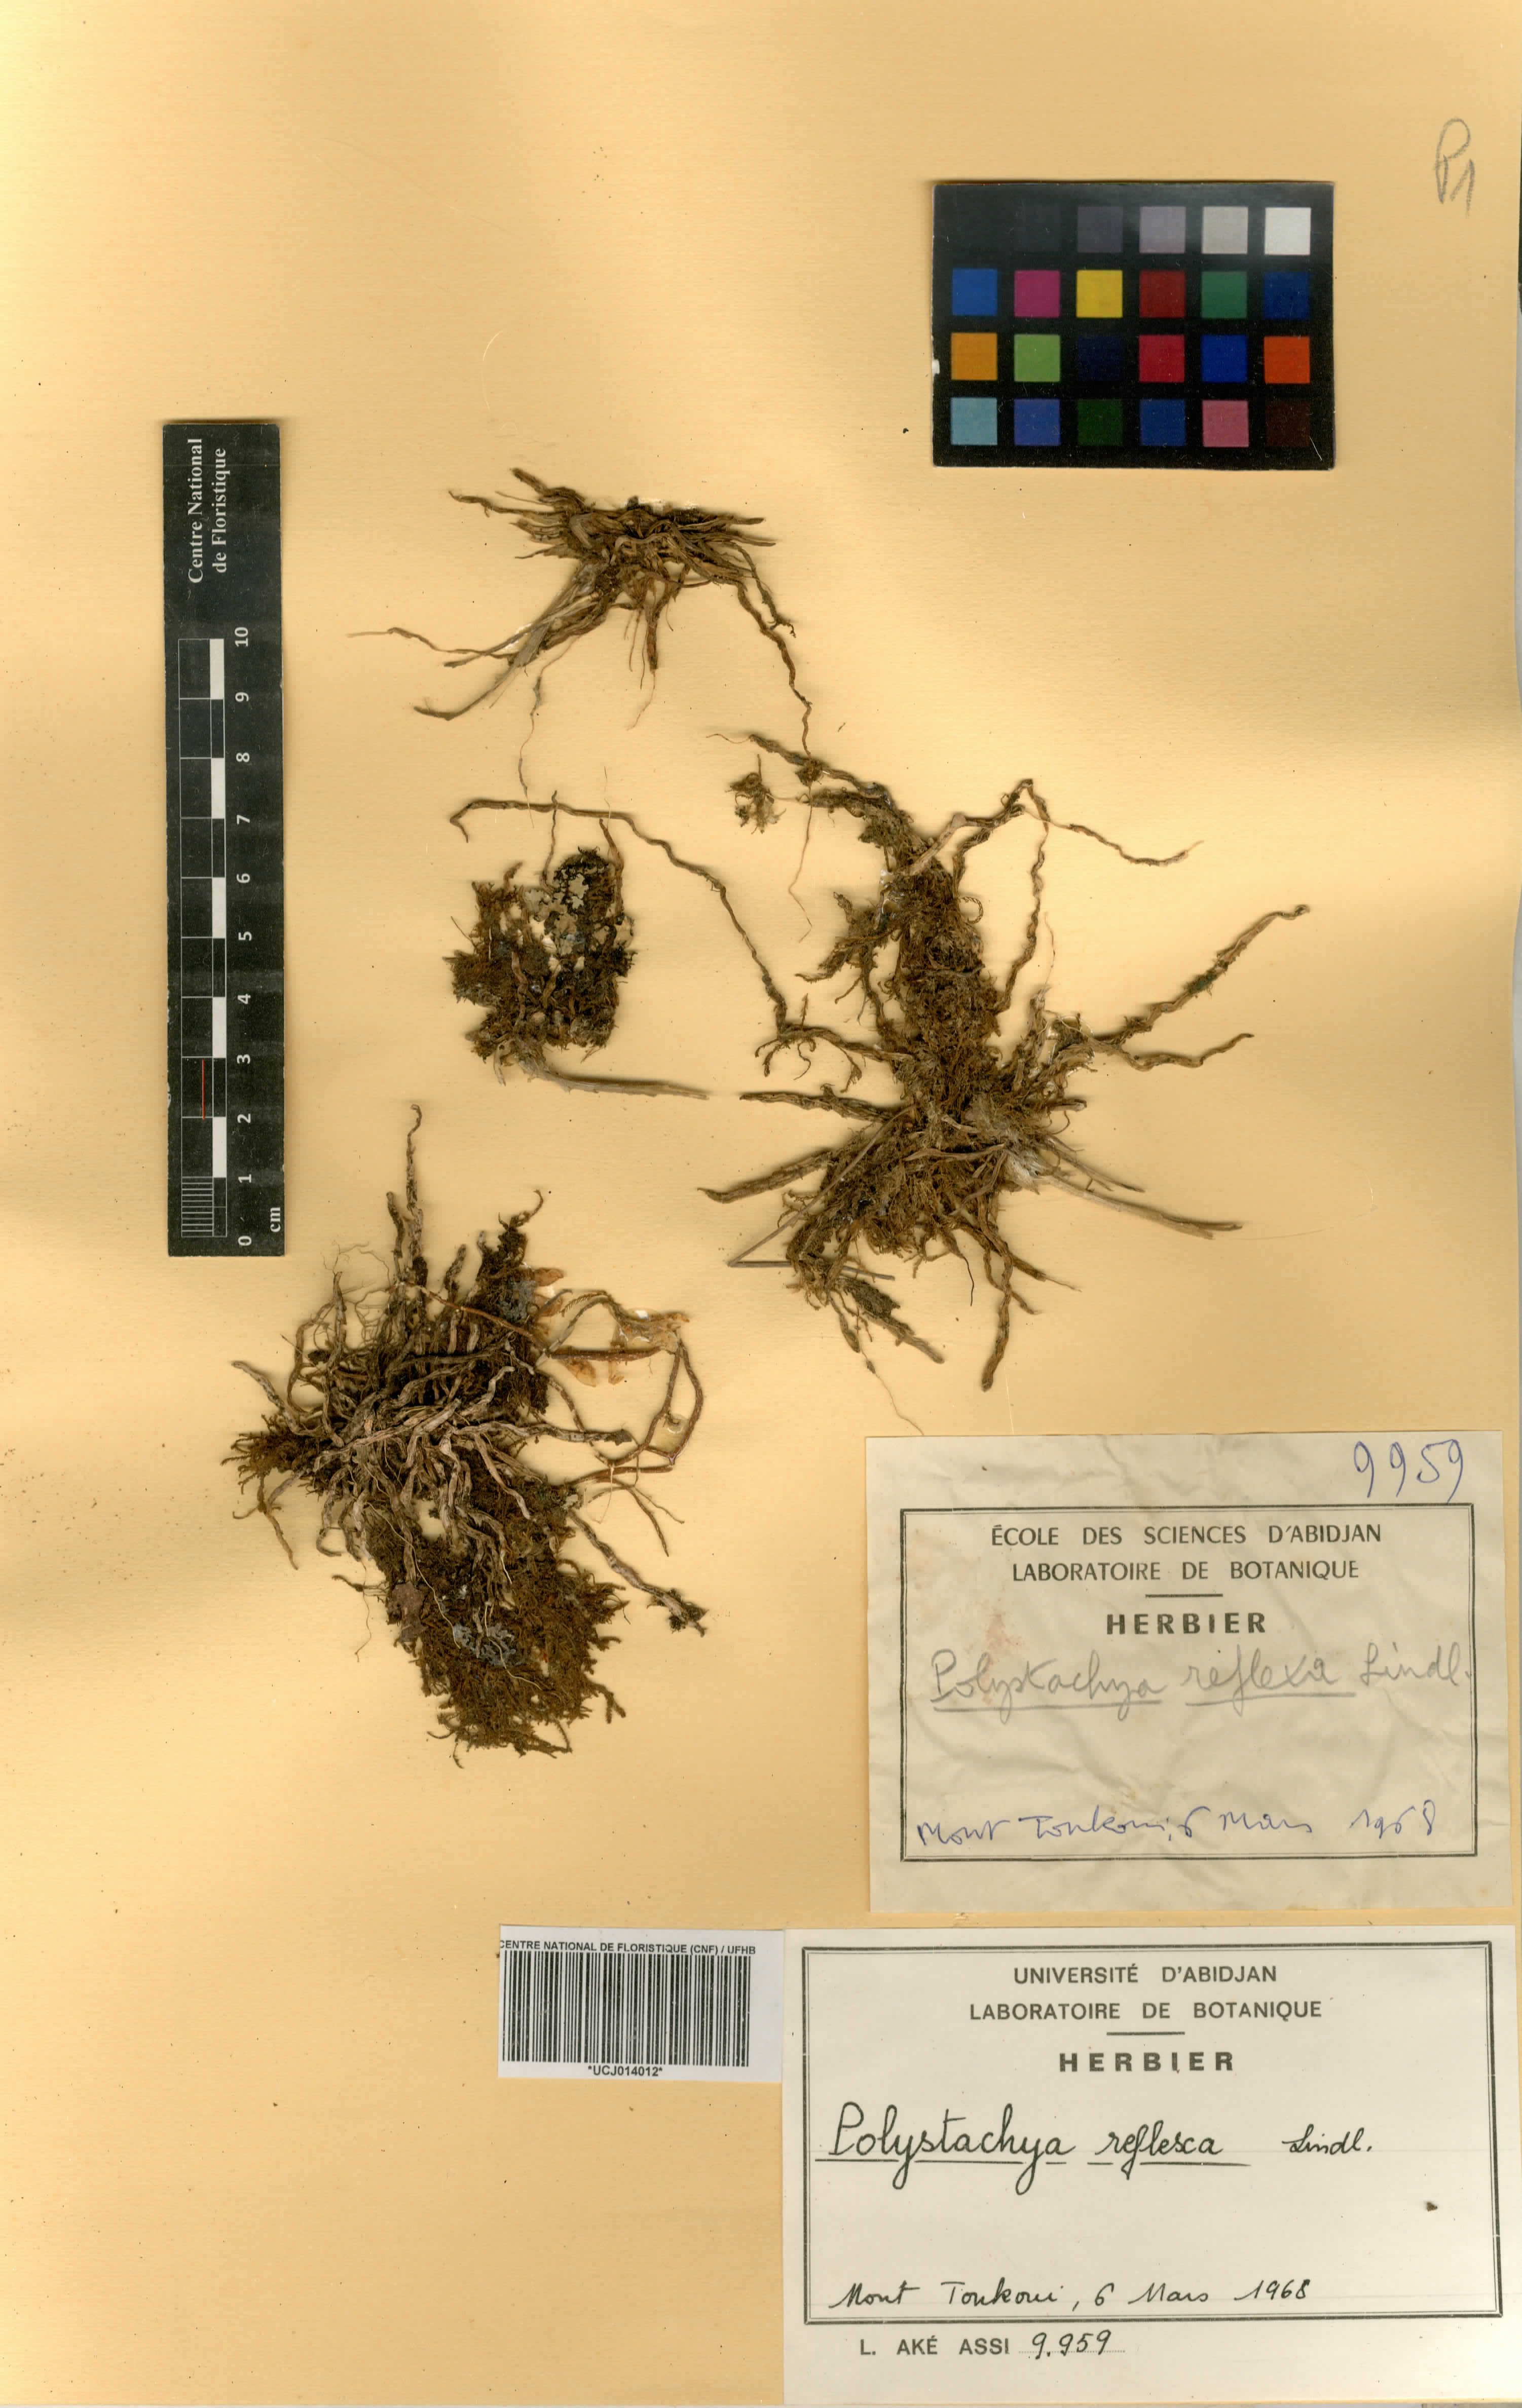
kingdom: Plantae
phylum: Tracheophyta
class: Liliopsida
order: Asparagales
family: Orchidaceae
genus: Polystachya
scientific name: Polystachya reflexa
